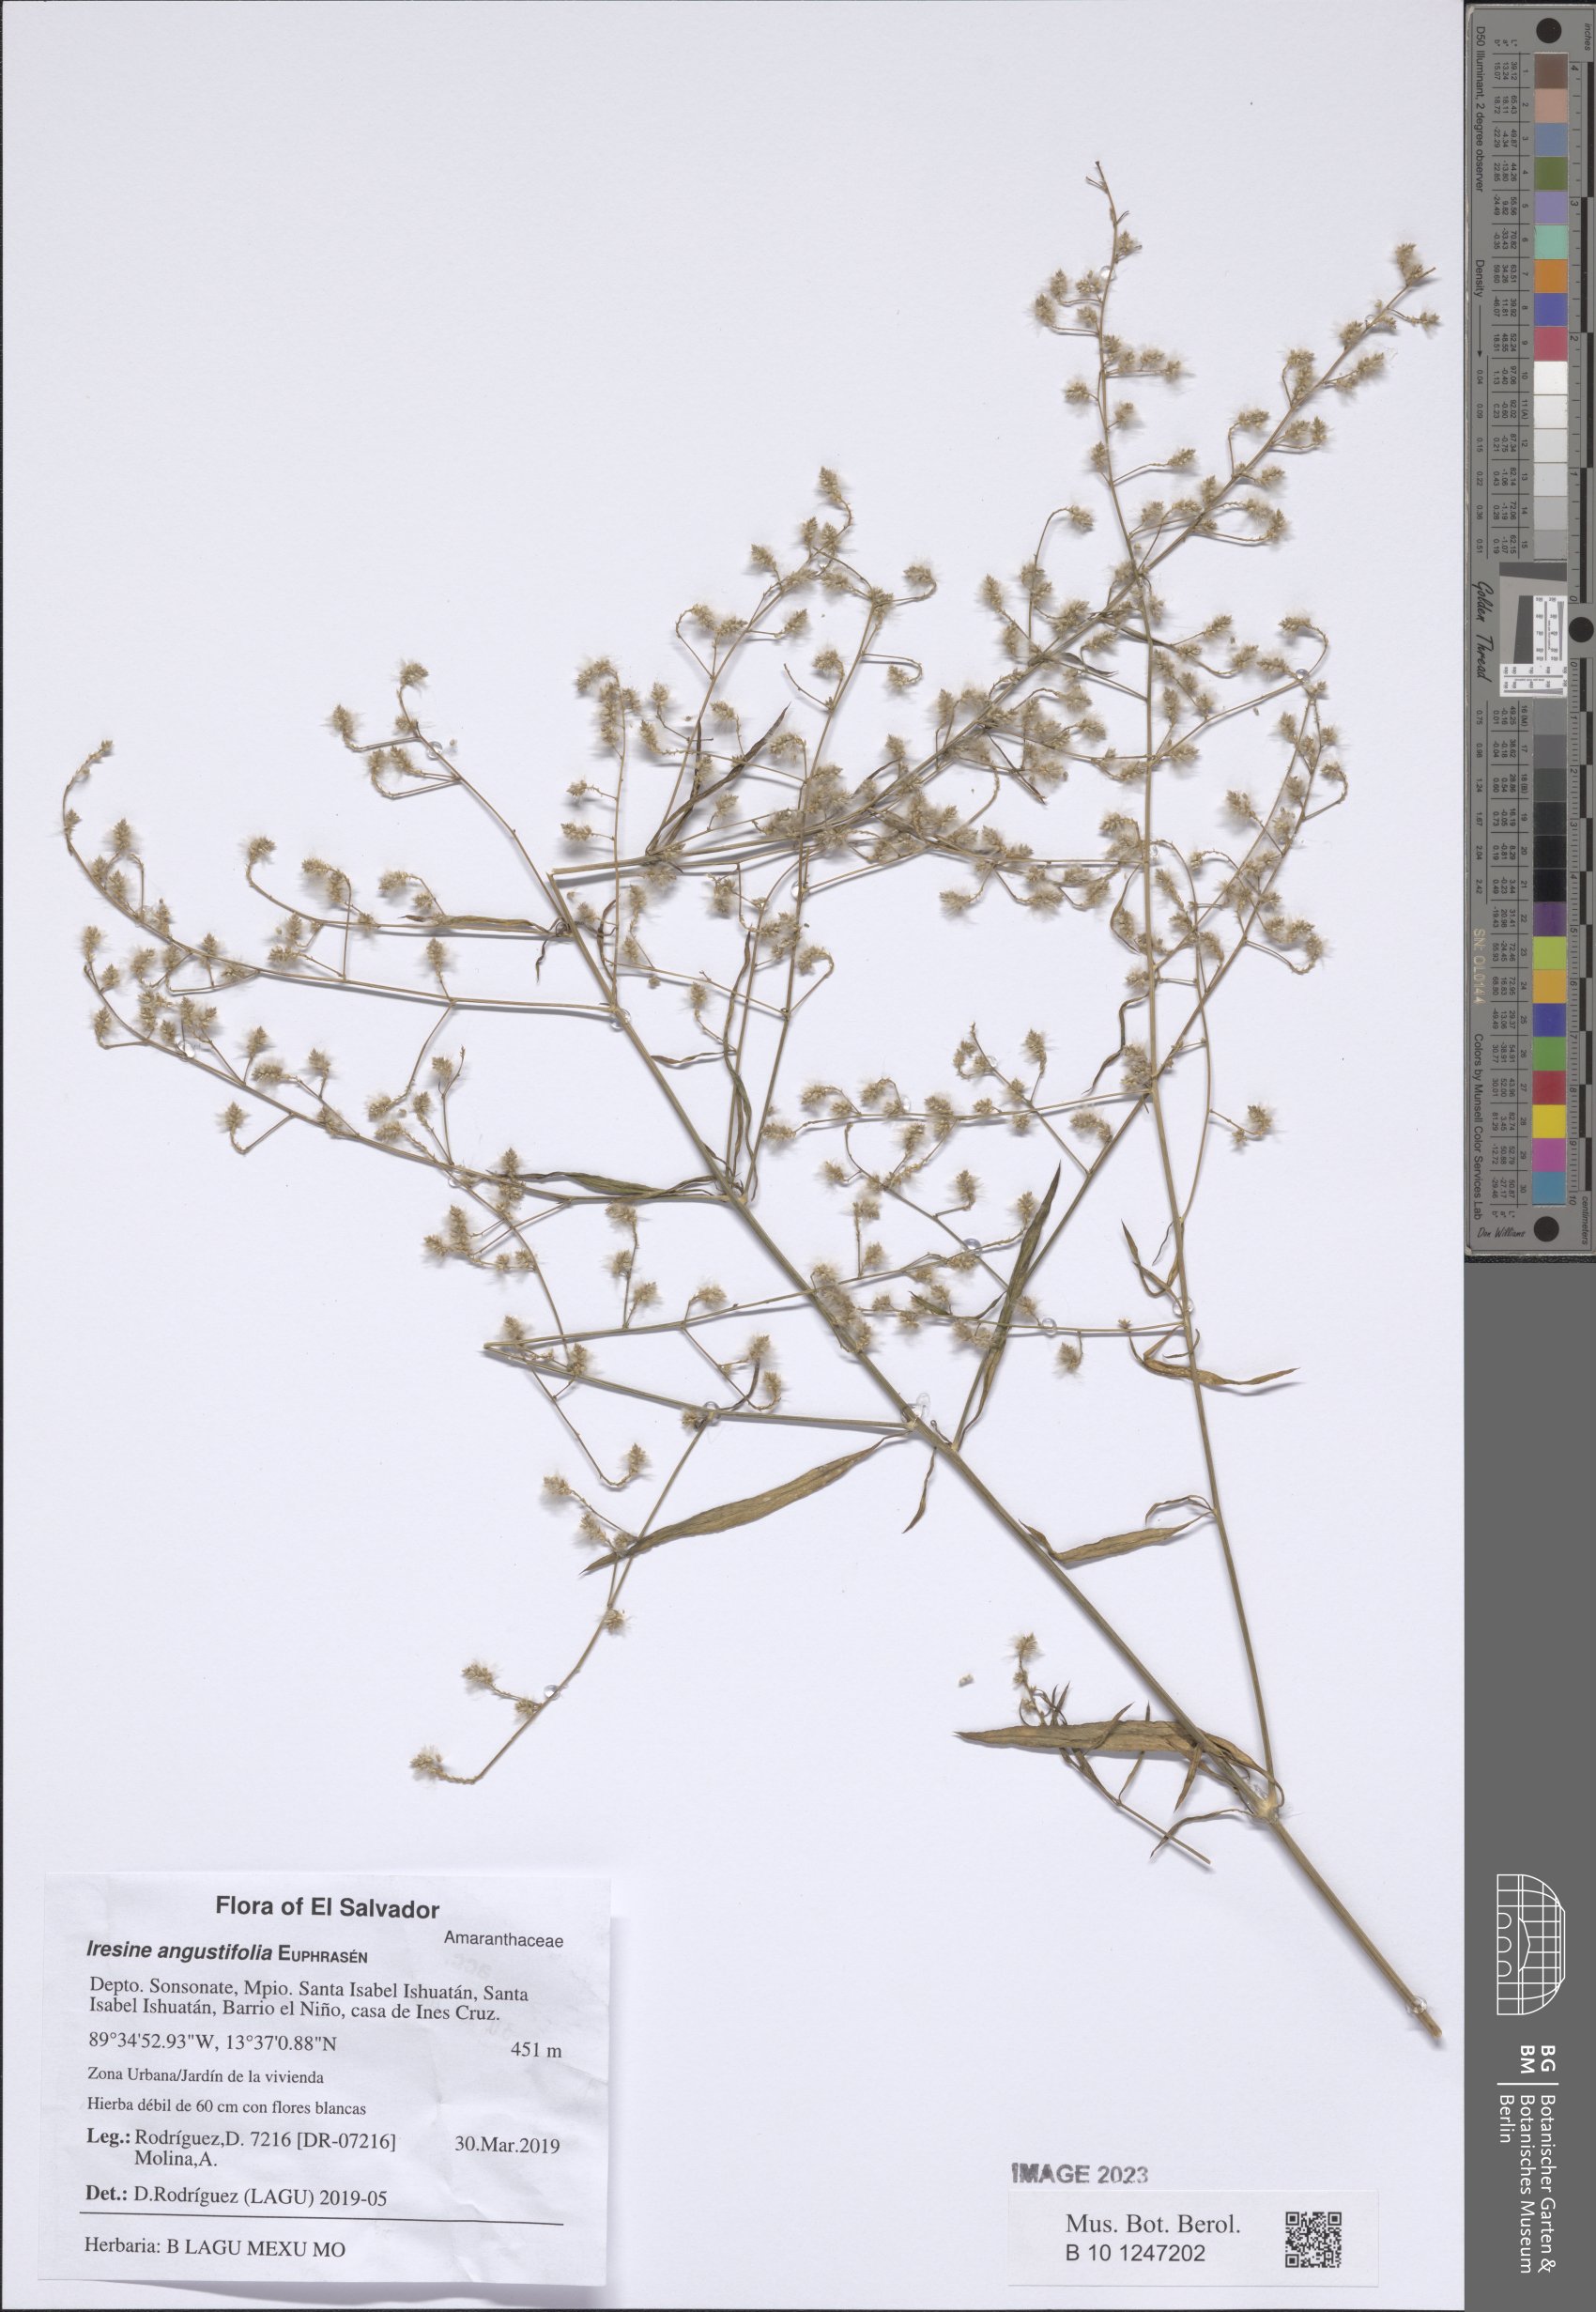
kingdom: Plantae
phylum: Tracheophyta
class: Magnoliopsida
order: Caryophyllales
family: Amaranthaceae
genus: Iresine
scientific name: Iresine angustifolia
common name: White snowplant
